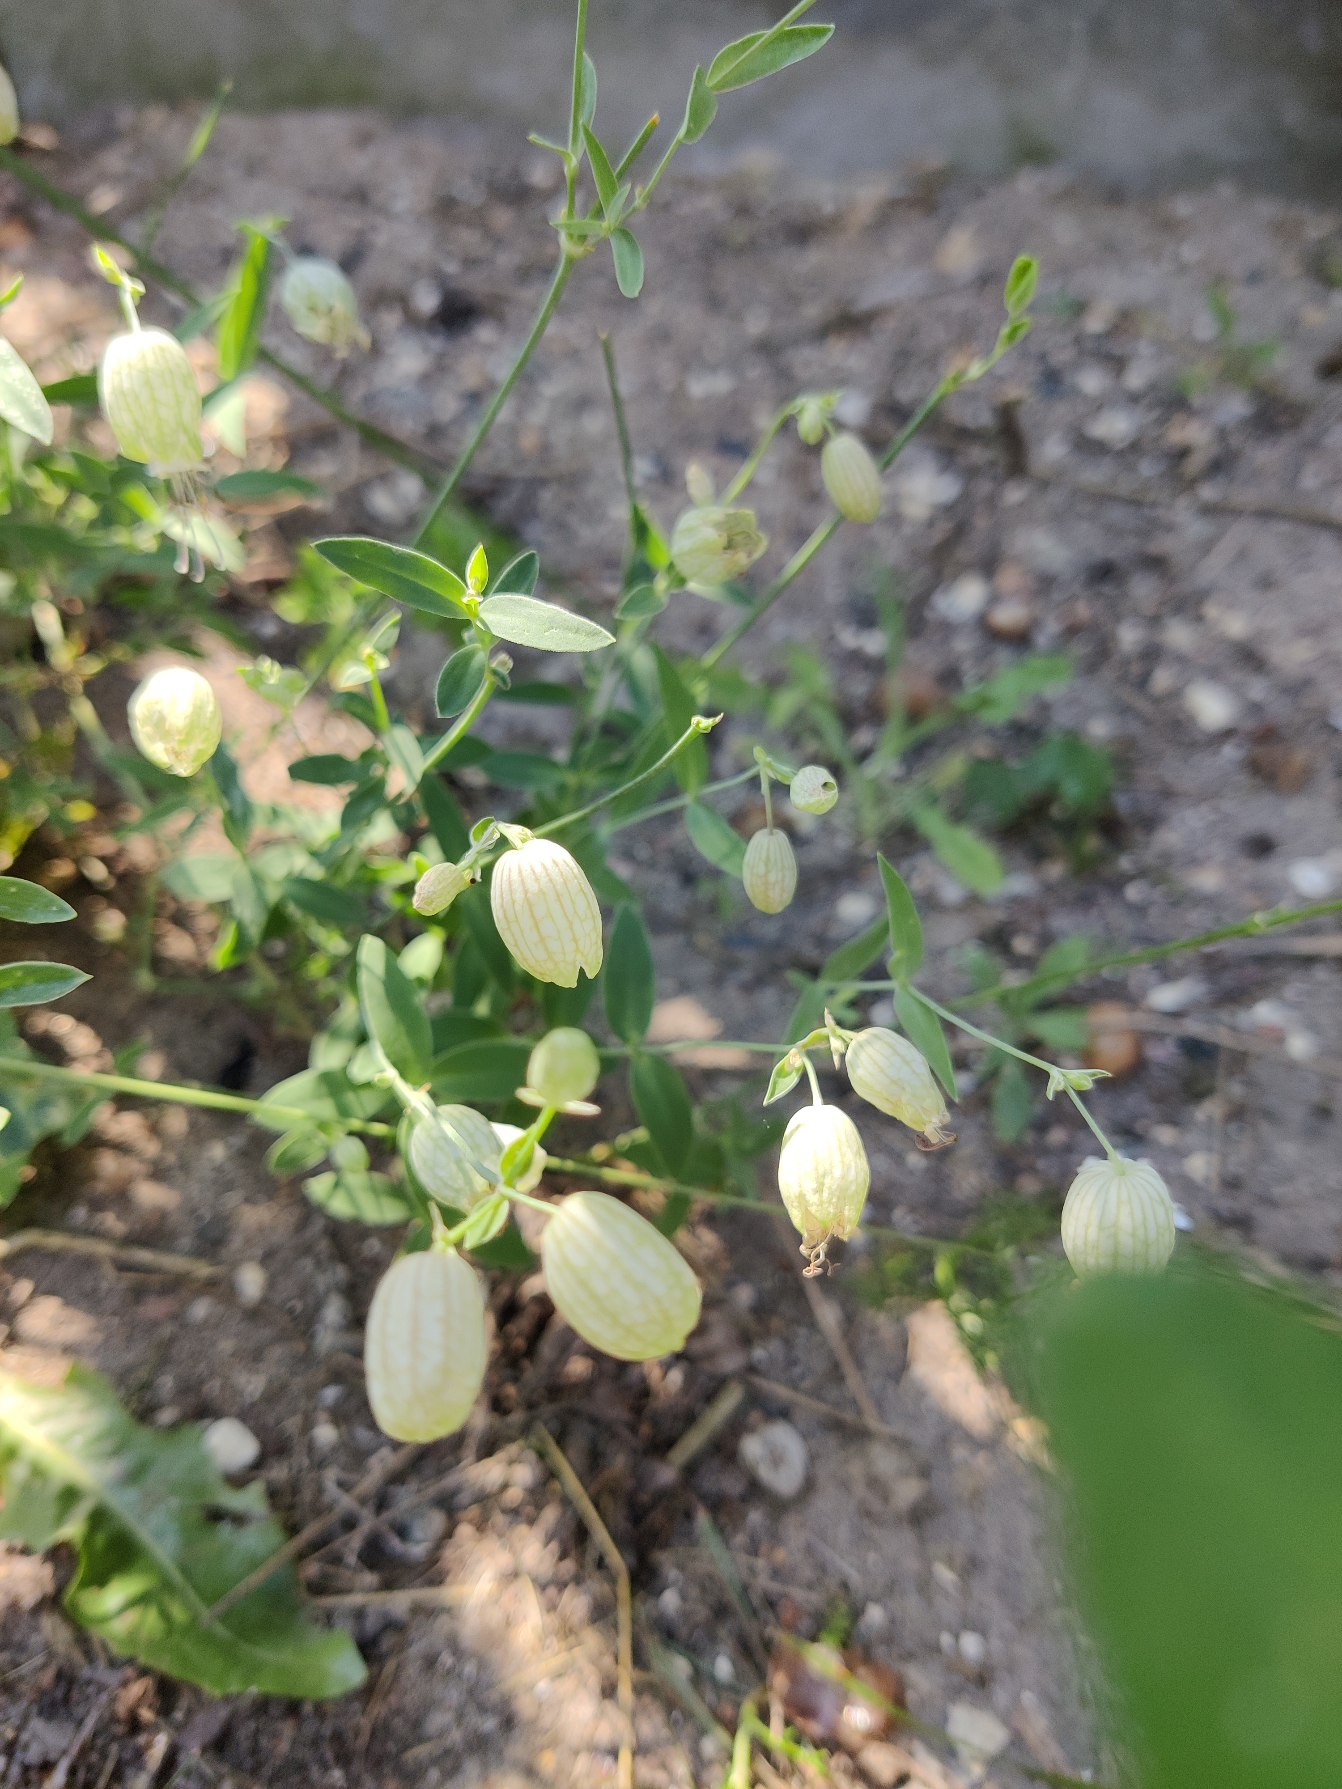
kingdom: Plantae
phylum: Tracheophyta
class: Magnoliopsida
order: Caryophyllales
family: Caryophyllaceae
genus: Silene
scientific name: Silene vulgaris
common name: Blæresmælde
